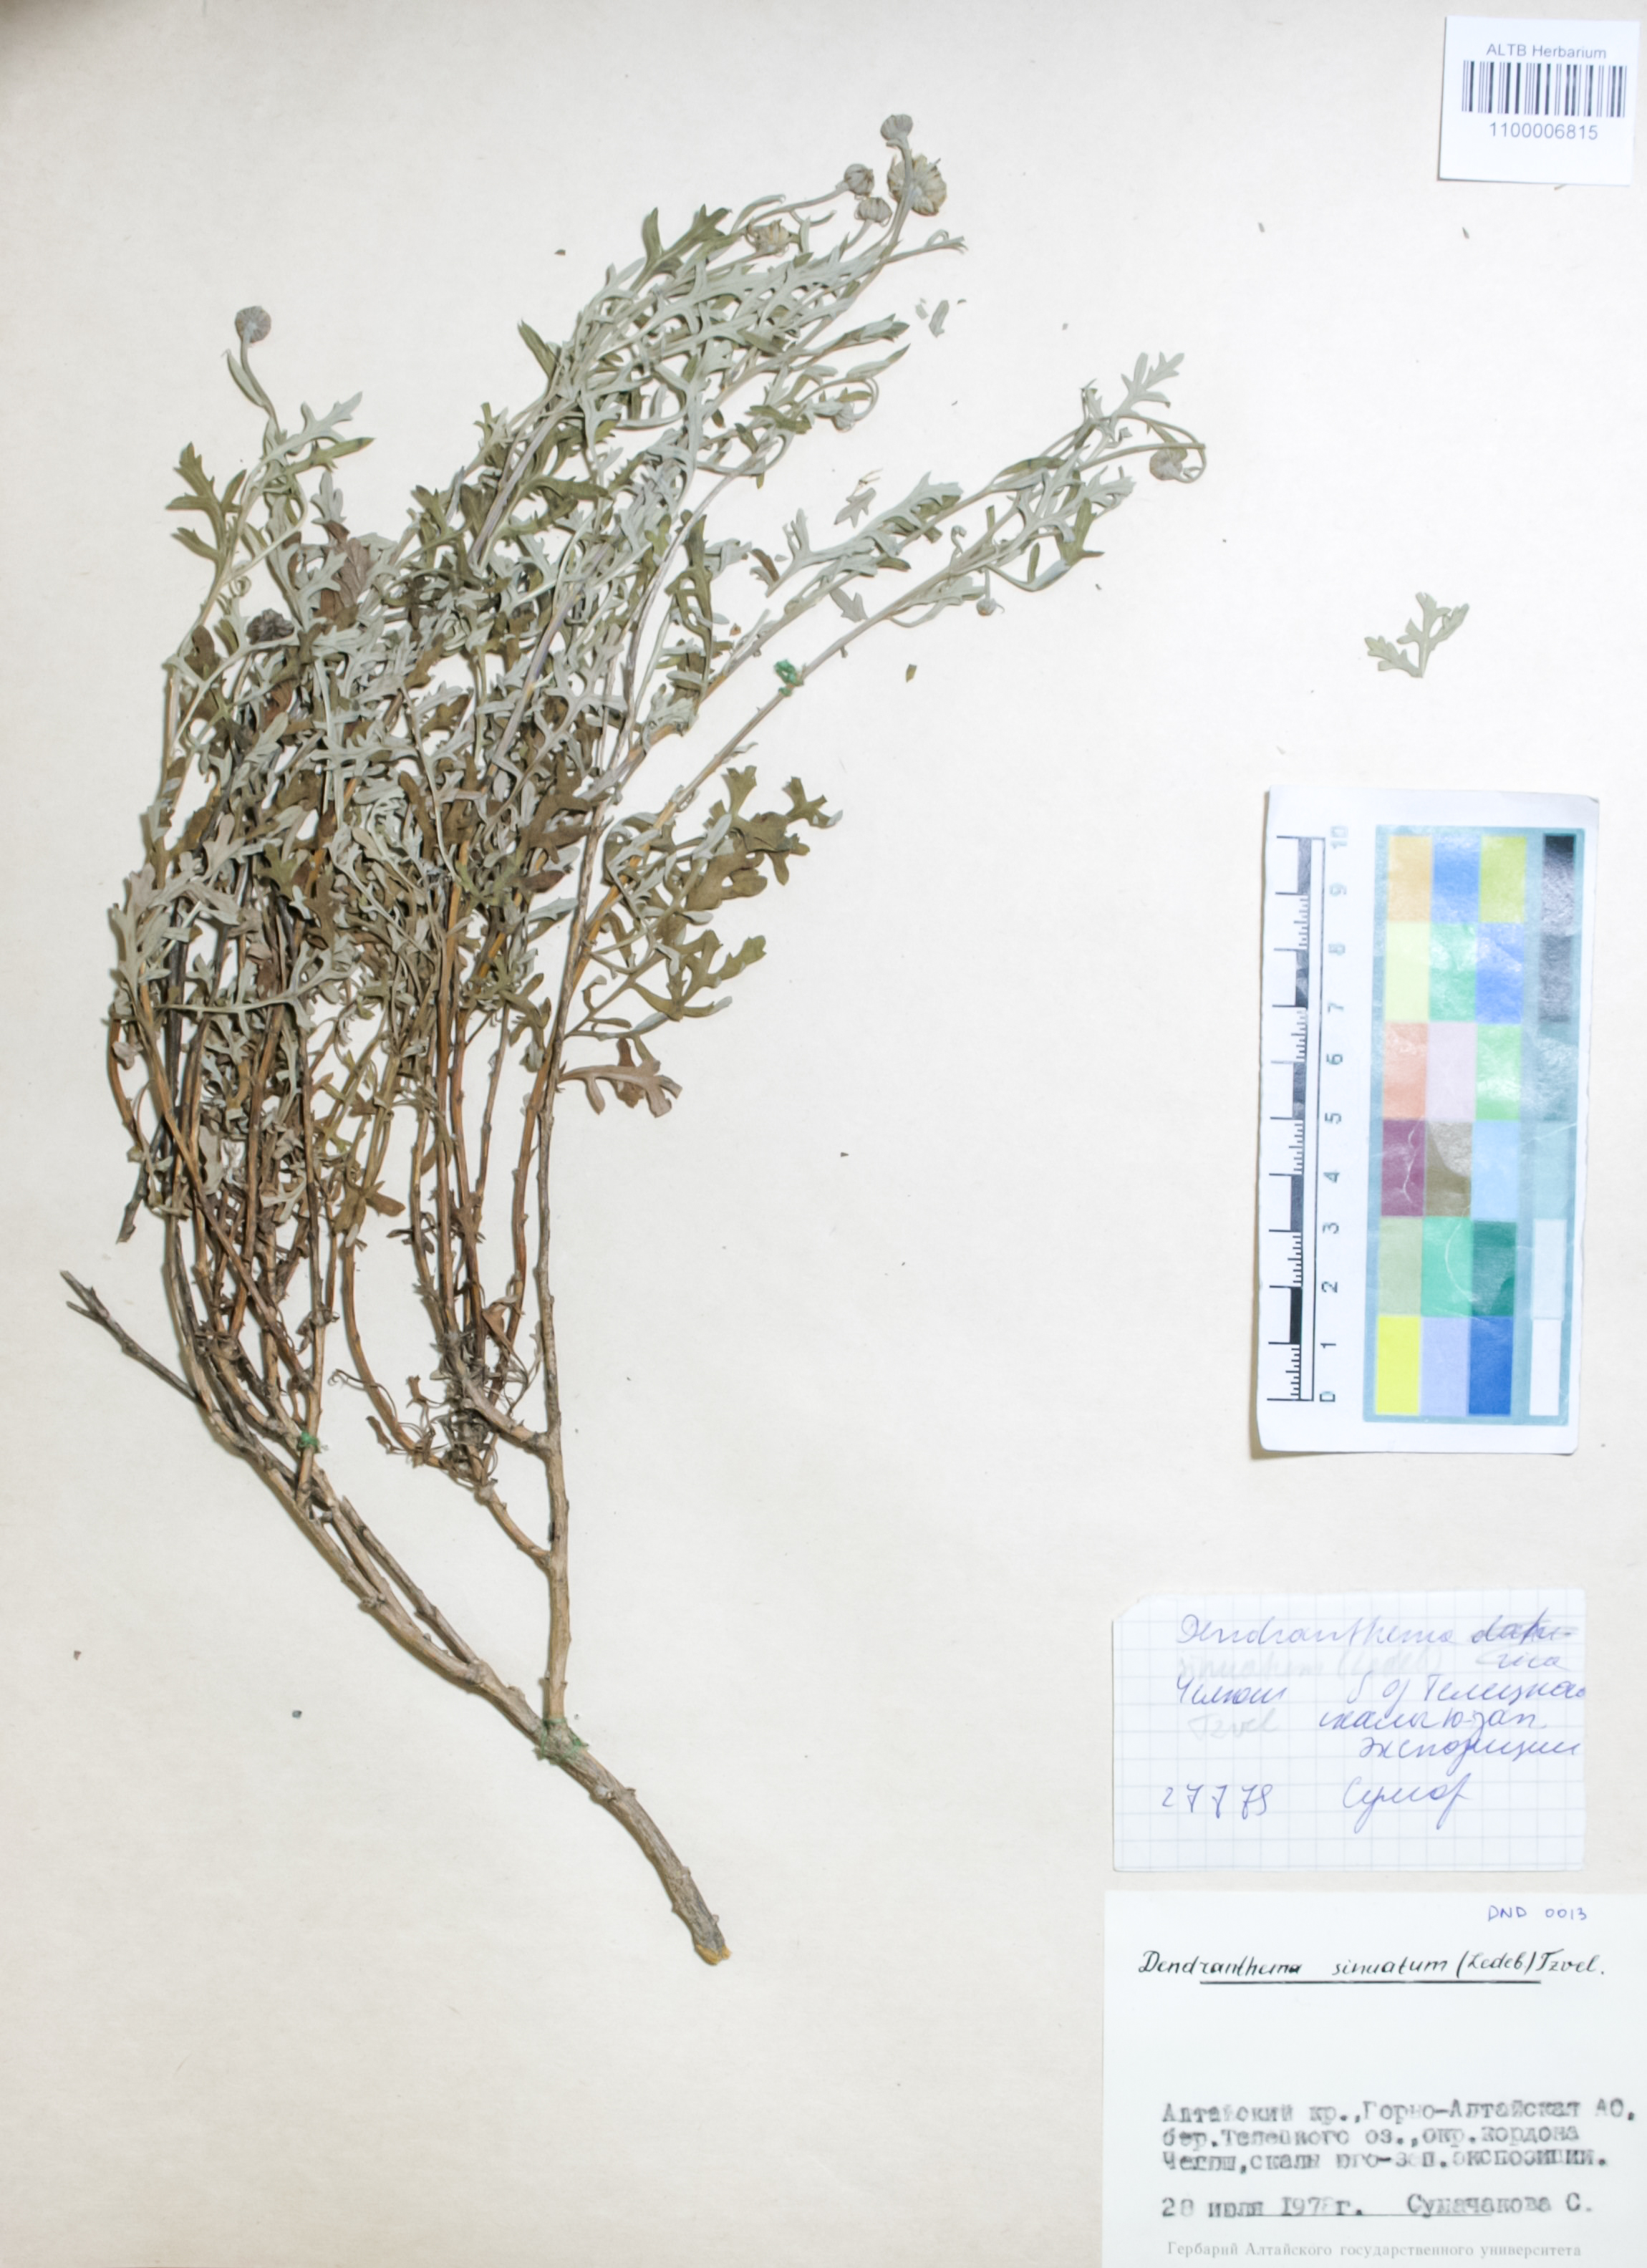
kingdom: Plantae
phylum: Tracheophyta
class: Magnoliopsida
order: Asterales
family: Asteraceae
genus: Chrysanthemum
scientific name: Chrysanthemum sinuatum
